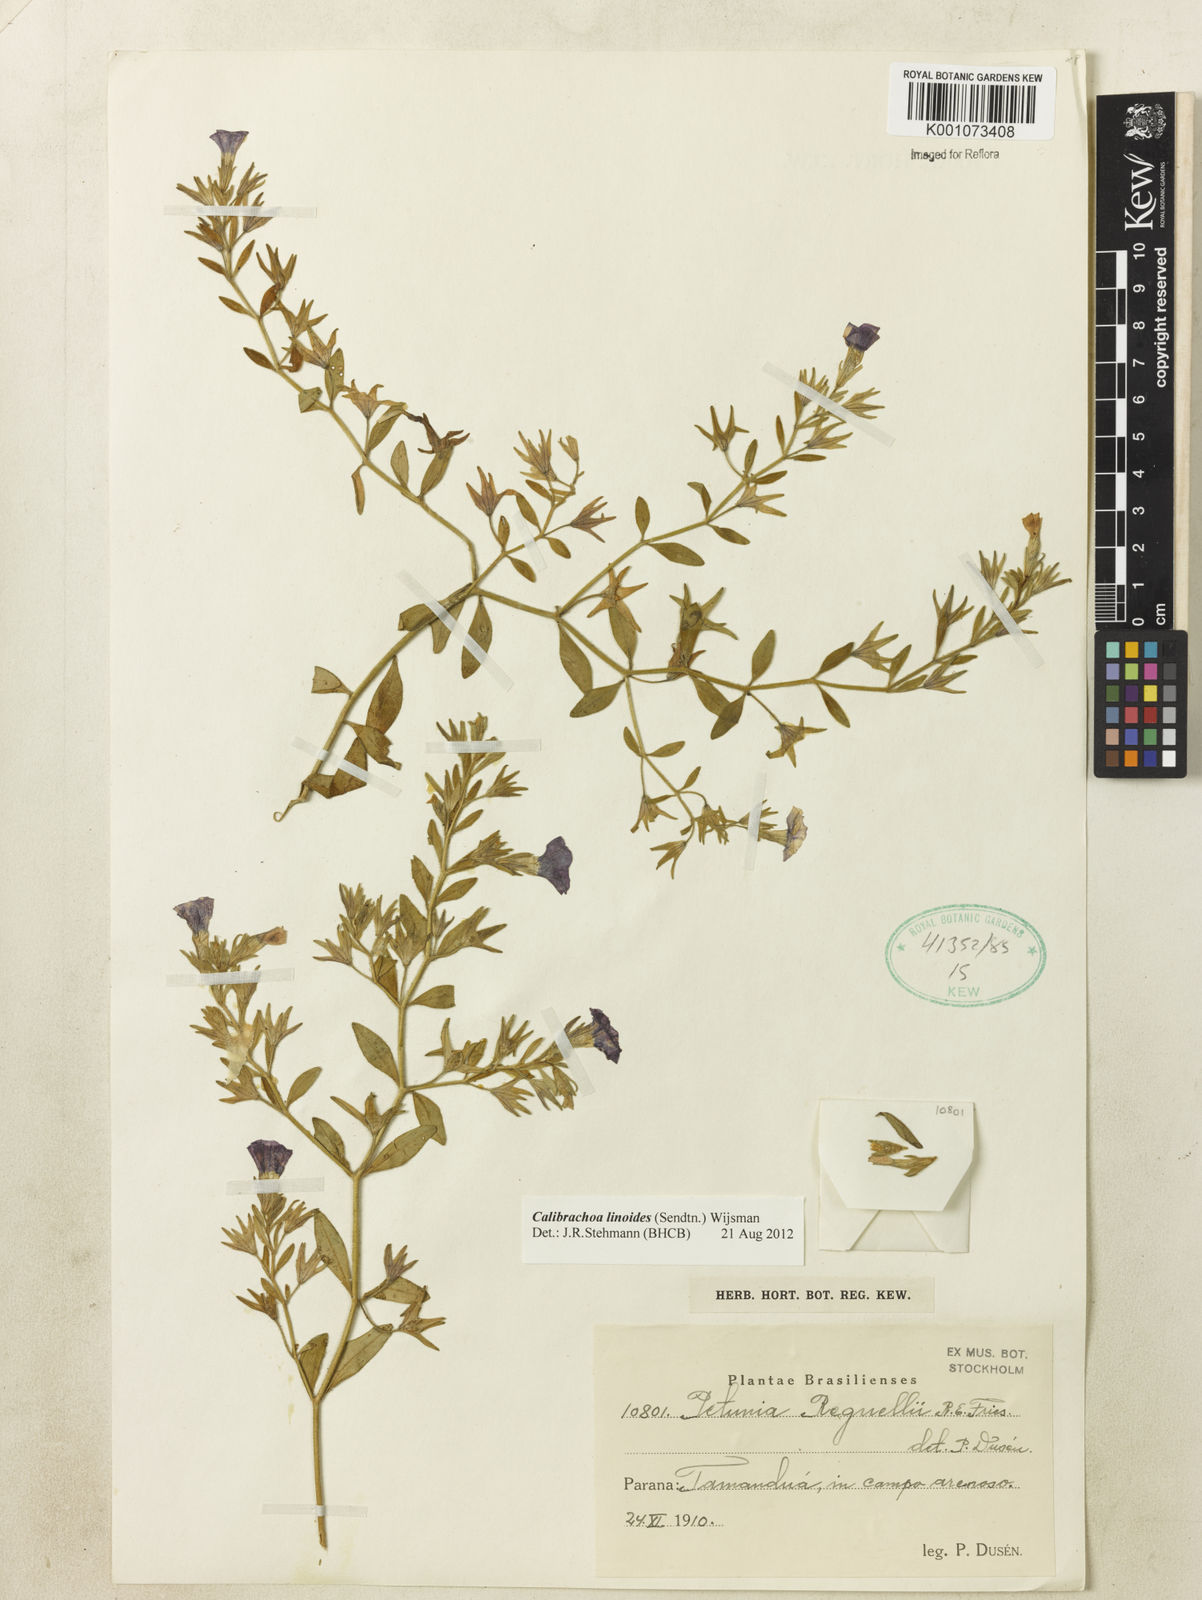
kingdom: Plantae
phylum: Tracheophyta
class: Magnoliopsida
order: Solanales
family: Solanaceae
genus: Calibrachoa
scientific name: Calibrachoa linoides
